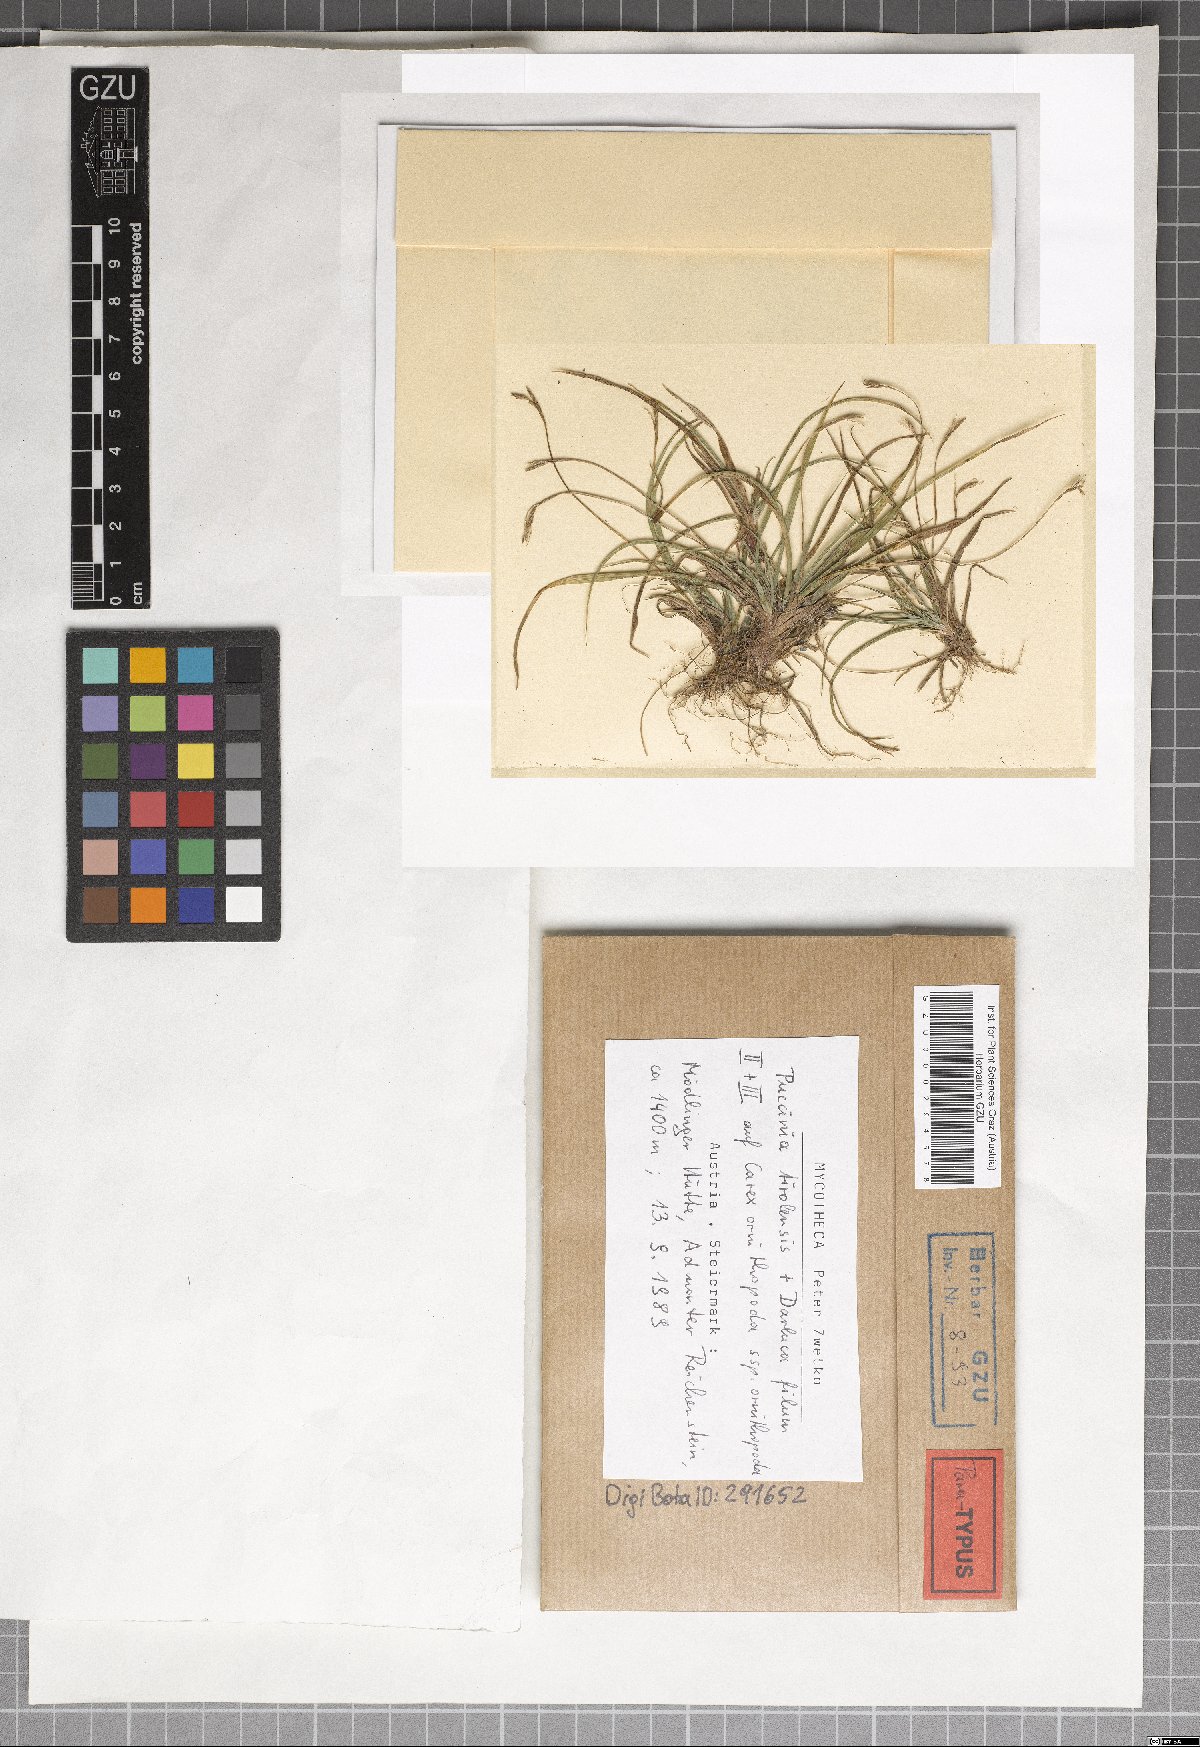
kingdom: Fungi
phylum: Basidiomycota
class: Pucciniomycetes
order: Pucciniales
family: Pucciniaceae
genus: Puccinia
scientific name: Puccinia tirolensis
